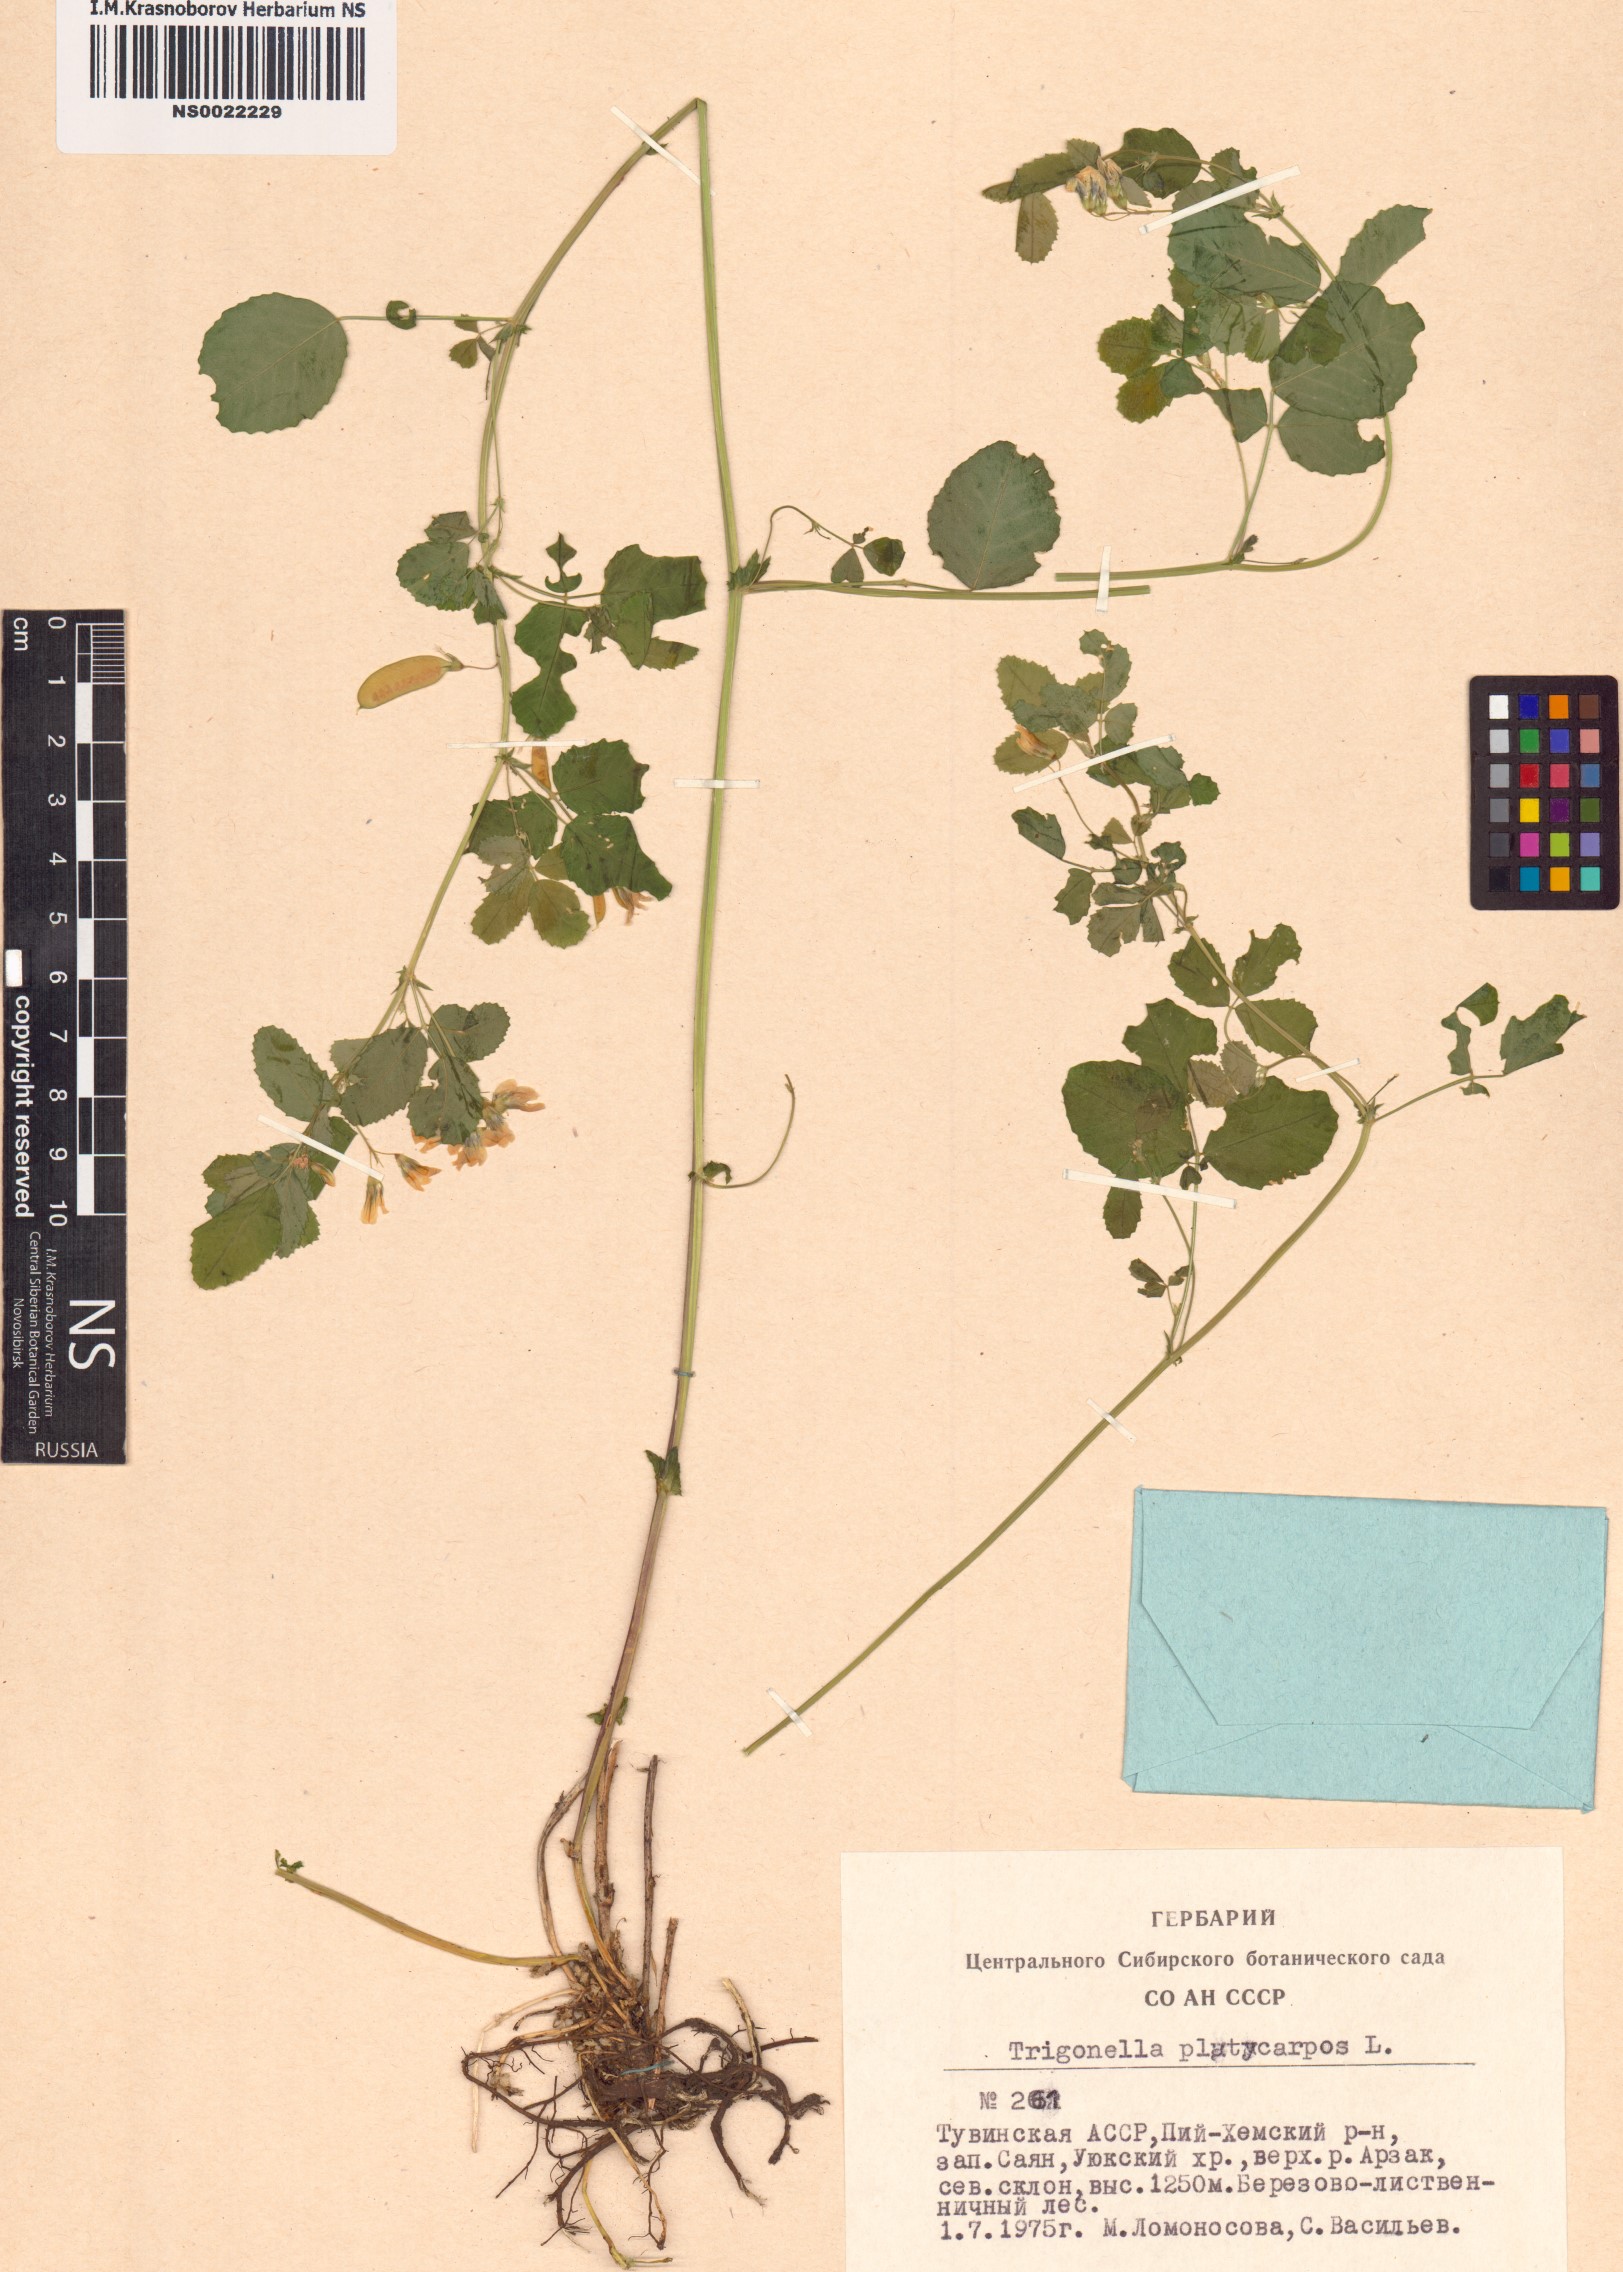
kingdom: Plantae
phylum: Tracheophyta
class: Magnoliopsida
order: Fabales
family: Fabaceae
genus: Medicago
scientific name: Medicago platycarpos
